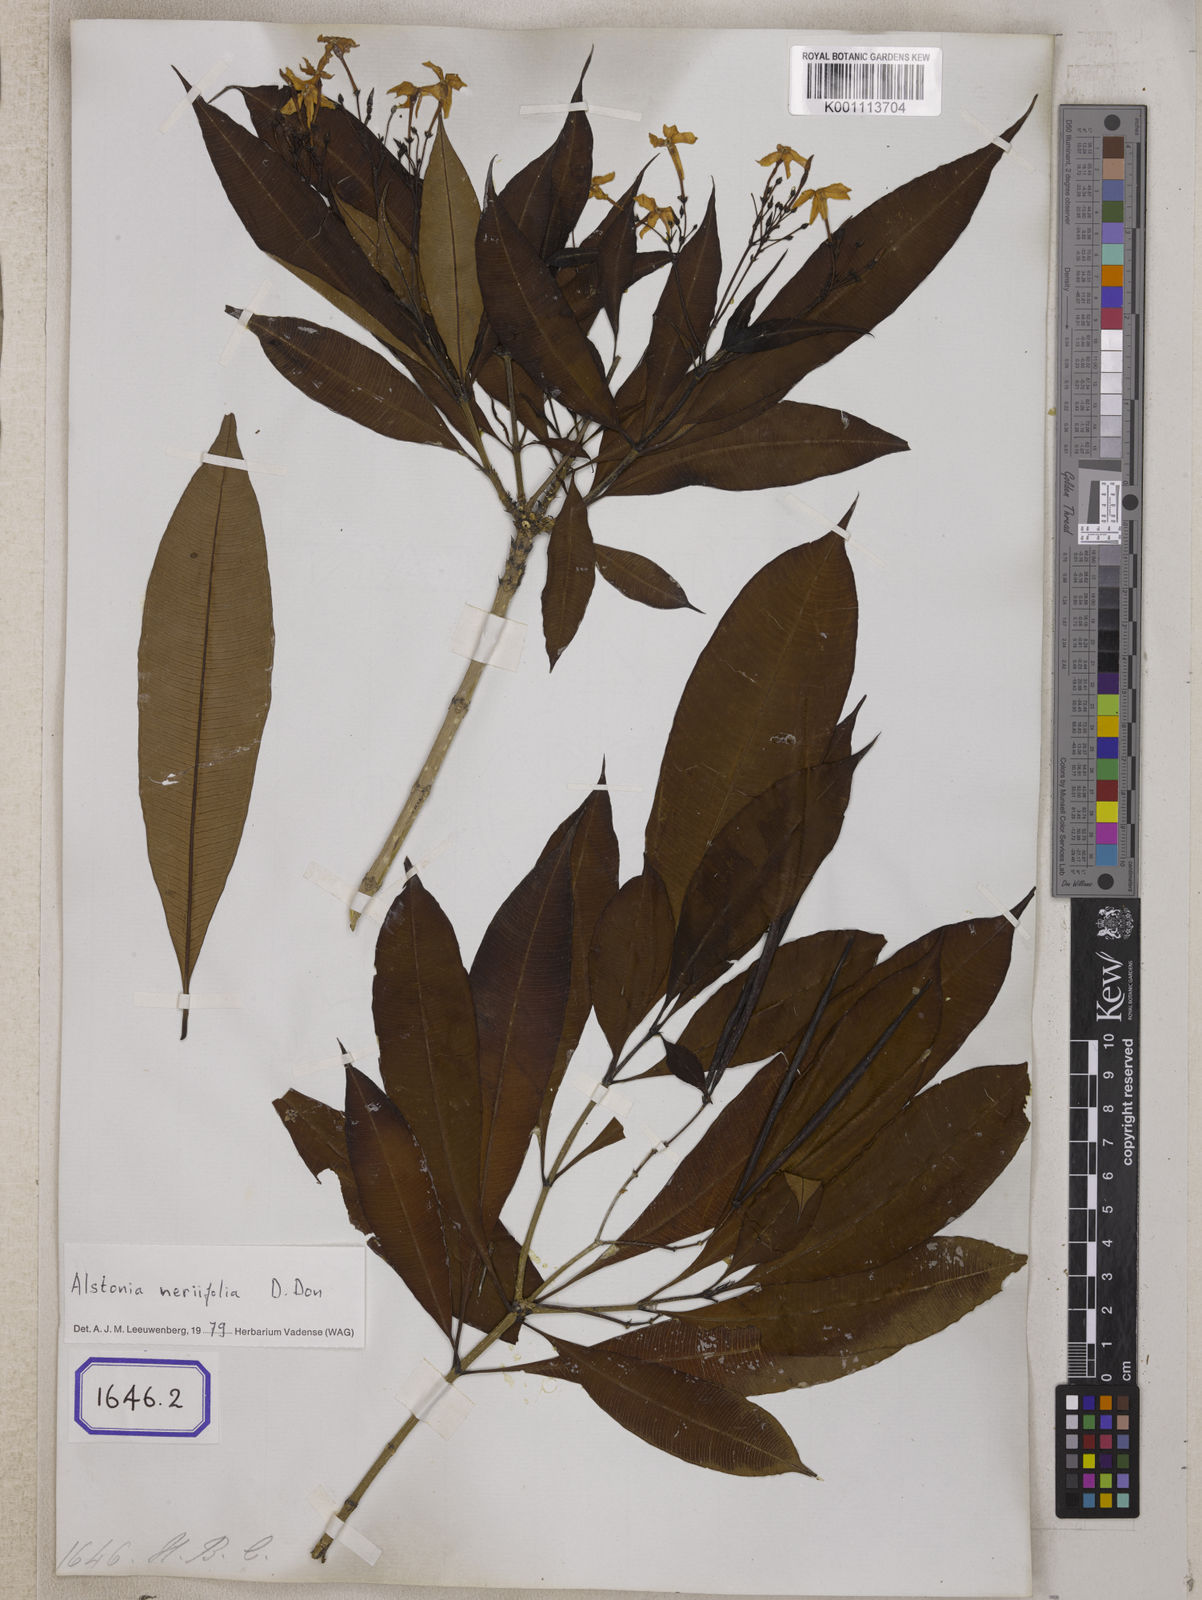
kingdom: Plantae
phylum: Tracheophyta
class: Magnoliopsida
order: Gentianales
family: Apocynaceae
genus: Alstonia
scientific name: Alstonia neriifolia
